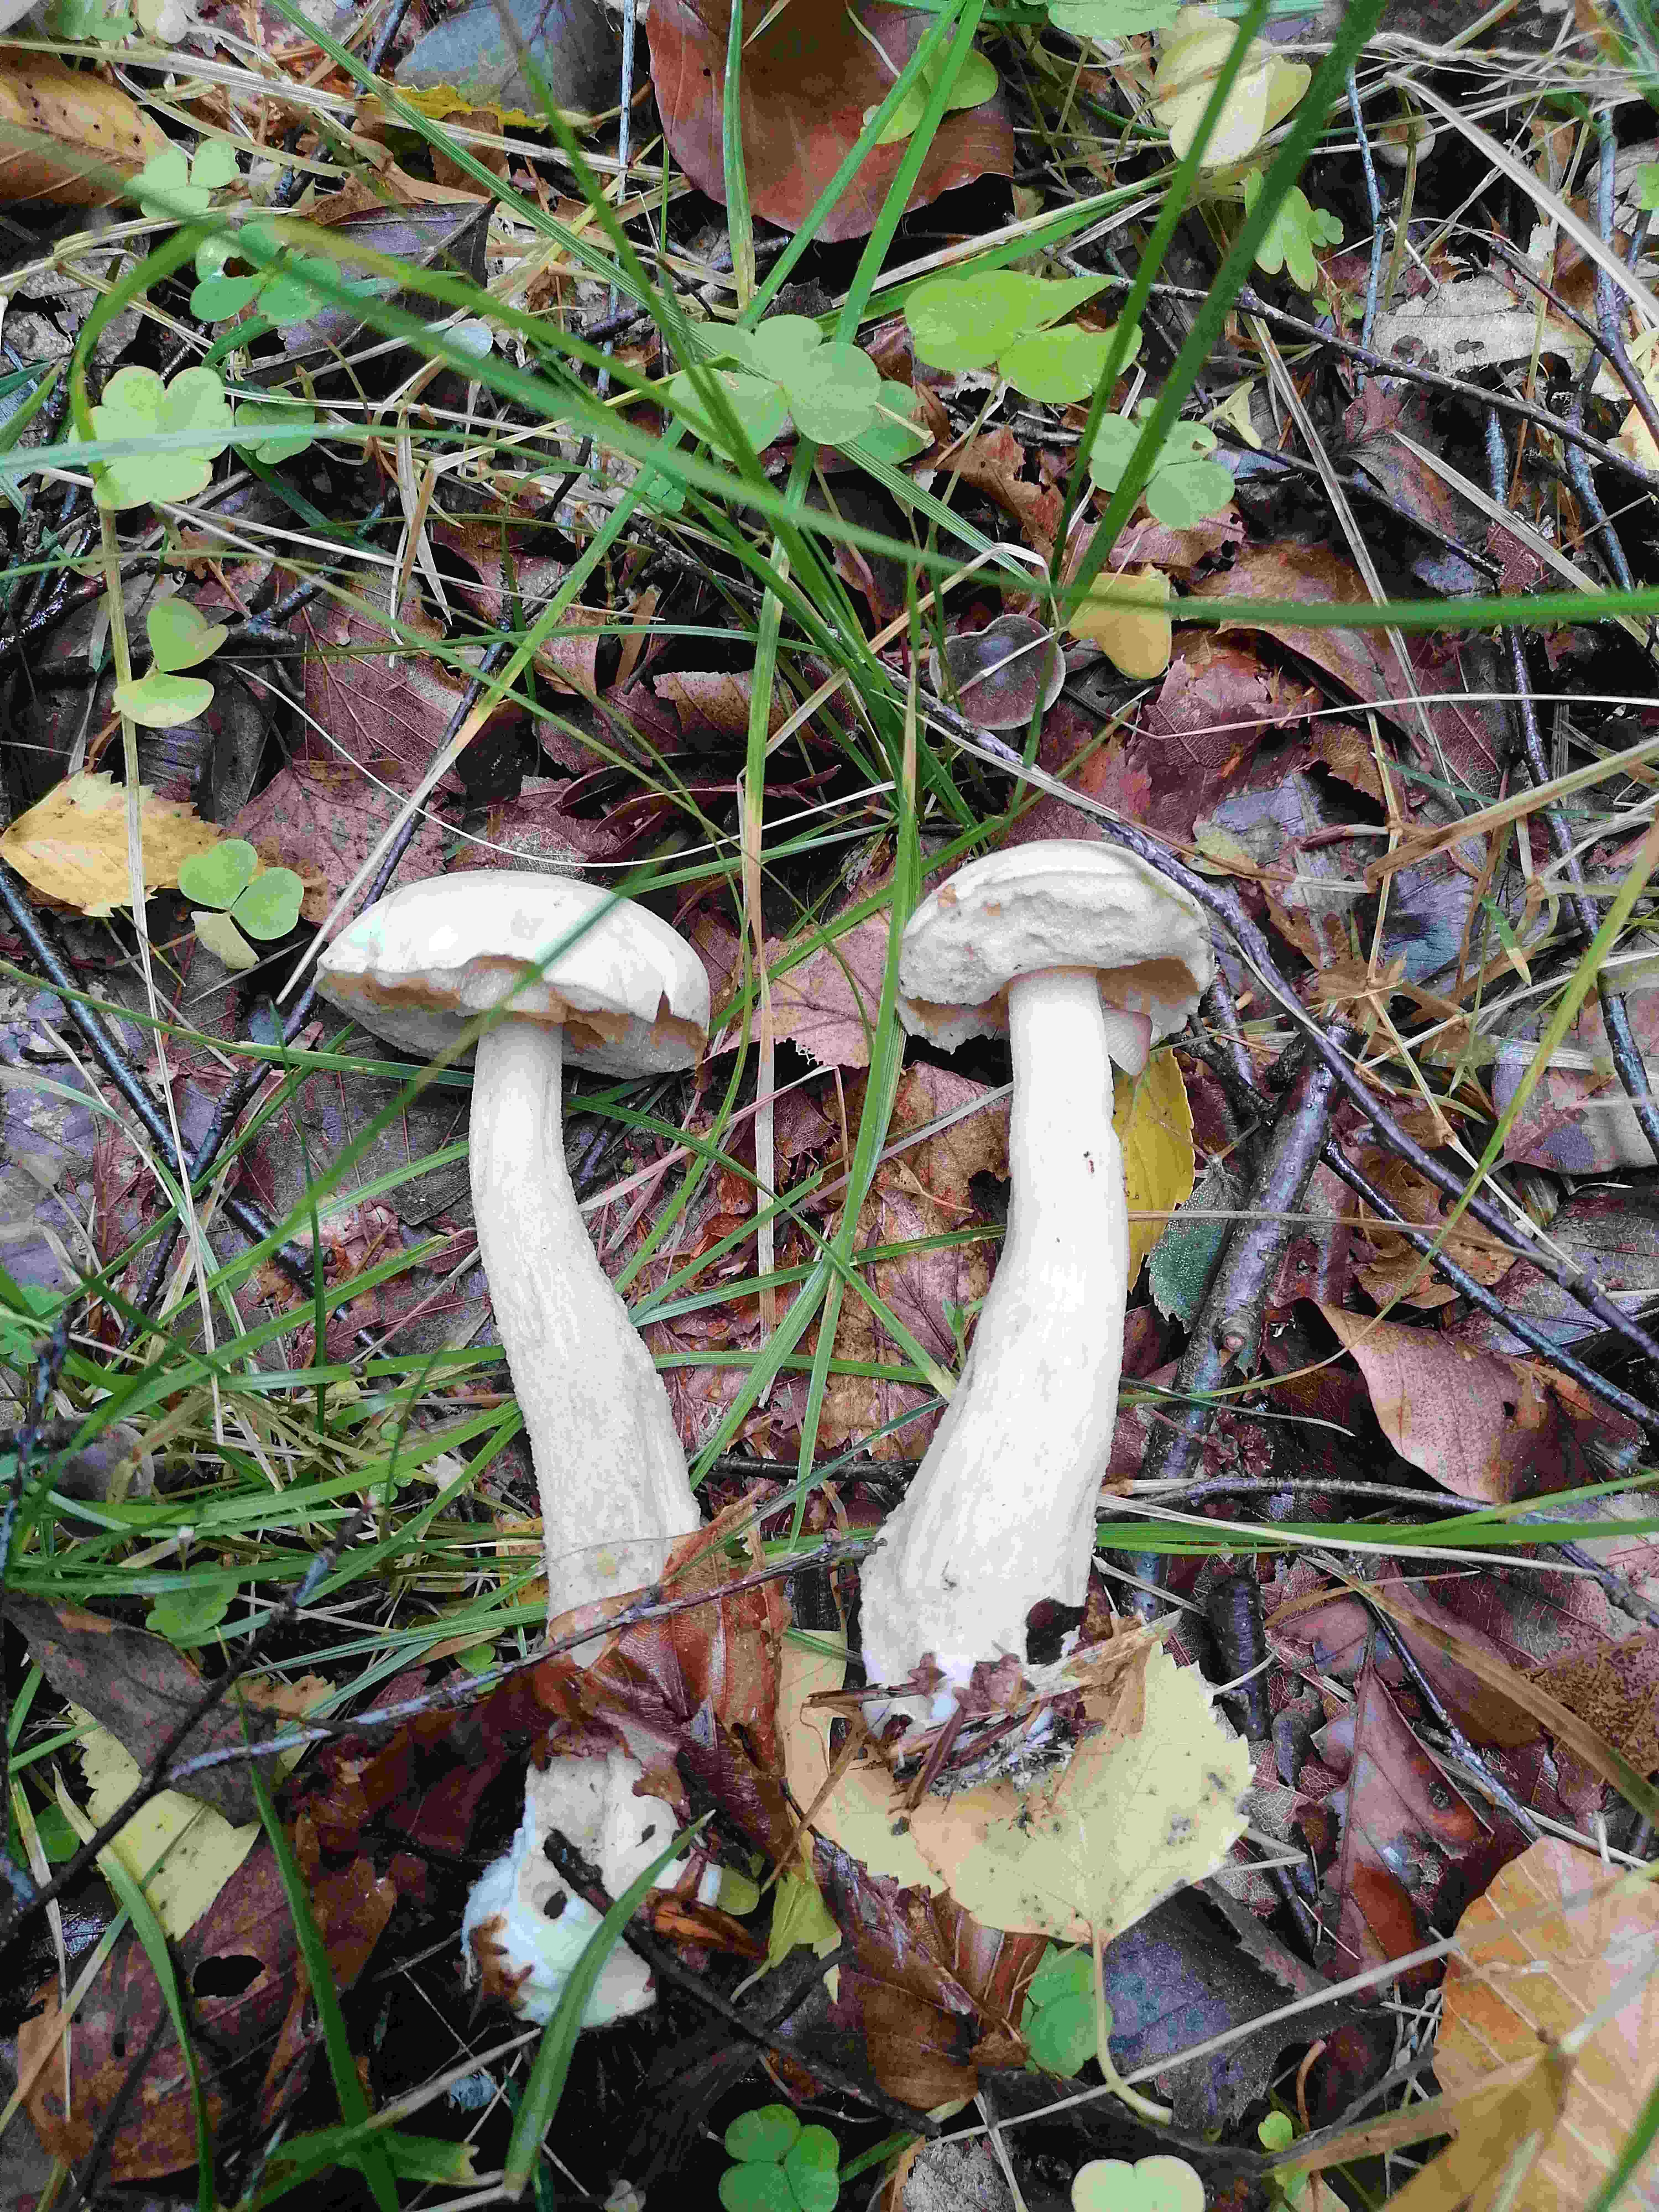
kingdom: Fungi
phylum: Basidiomycota
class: Agaricomycetes
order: Boletales
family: Boletaceae
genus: Leccinum
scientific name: Leccinum scabrum
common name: hvid skælrørhat
